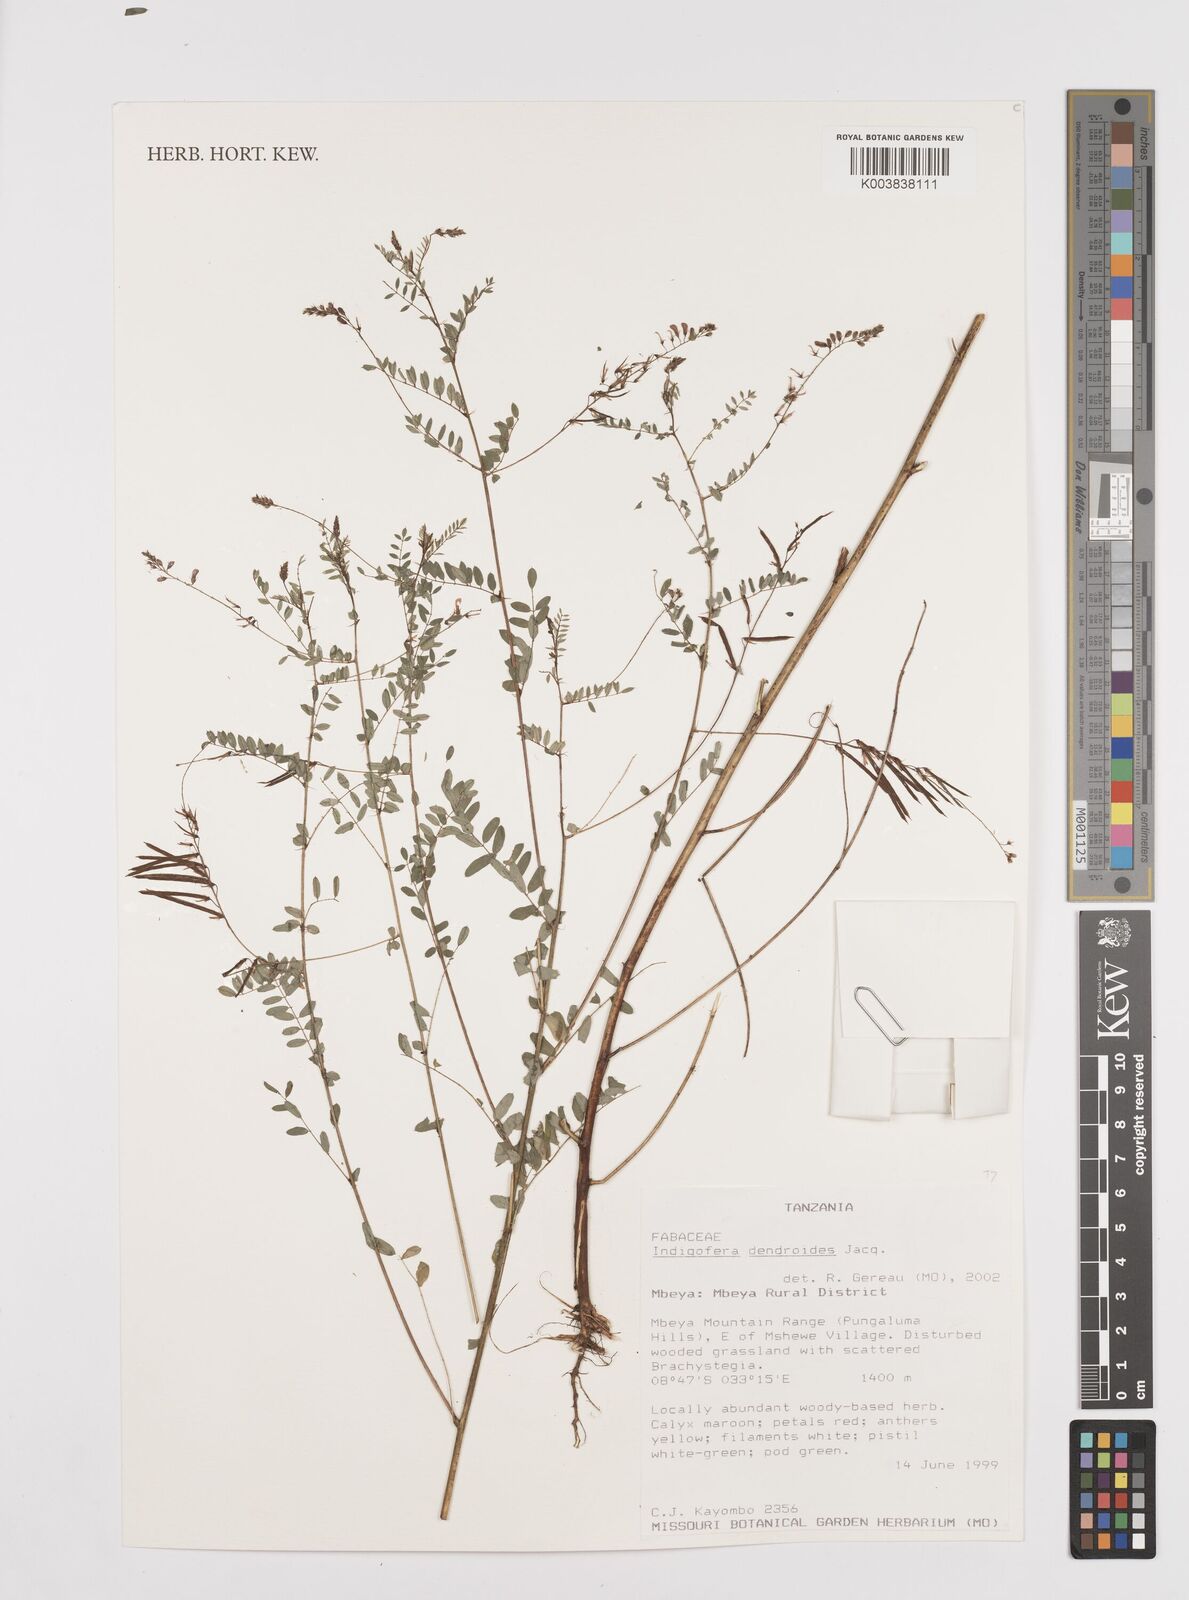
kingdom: Plantae
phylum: Tracheophyta
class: Magnoliopsida
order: Fabales
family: Fabaceae
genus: Indigofera
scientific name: Indigofera dendroides
